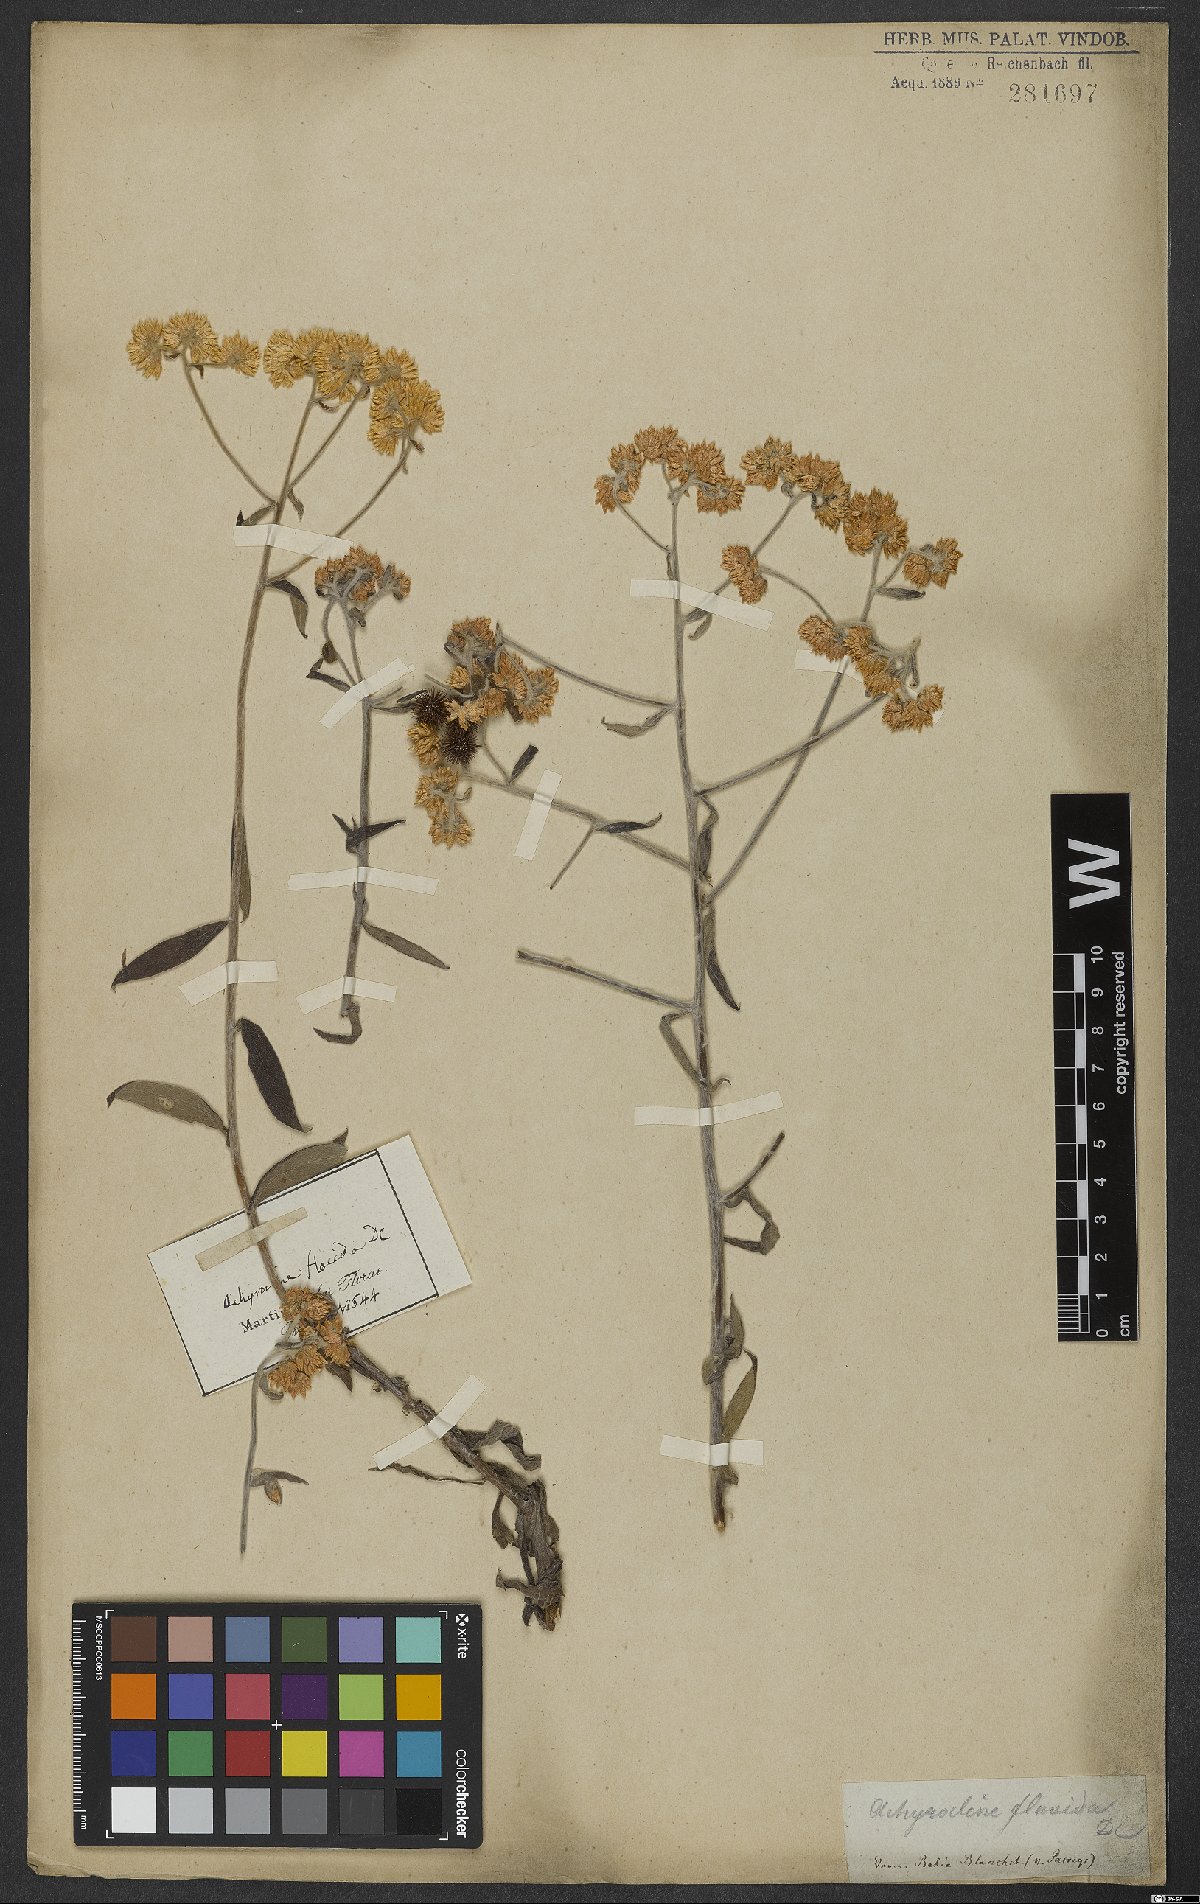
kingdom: Plantae
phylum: Tracheophyta
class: Magnoliopsida
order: Asterales
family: Asteraceae
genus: Achyrocline
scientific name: Achyrocline flaccida
